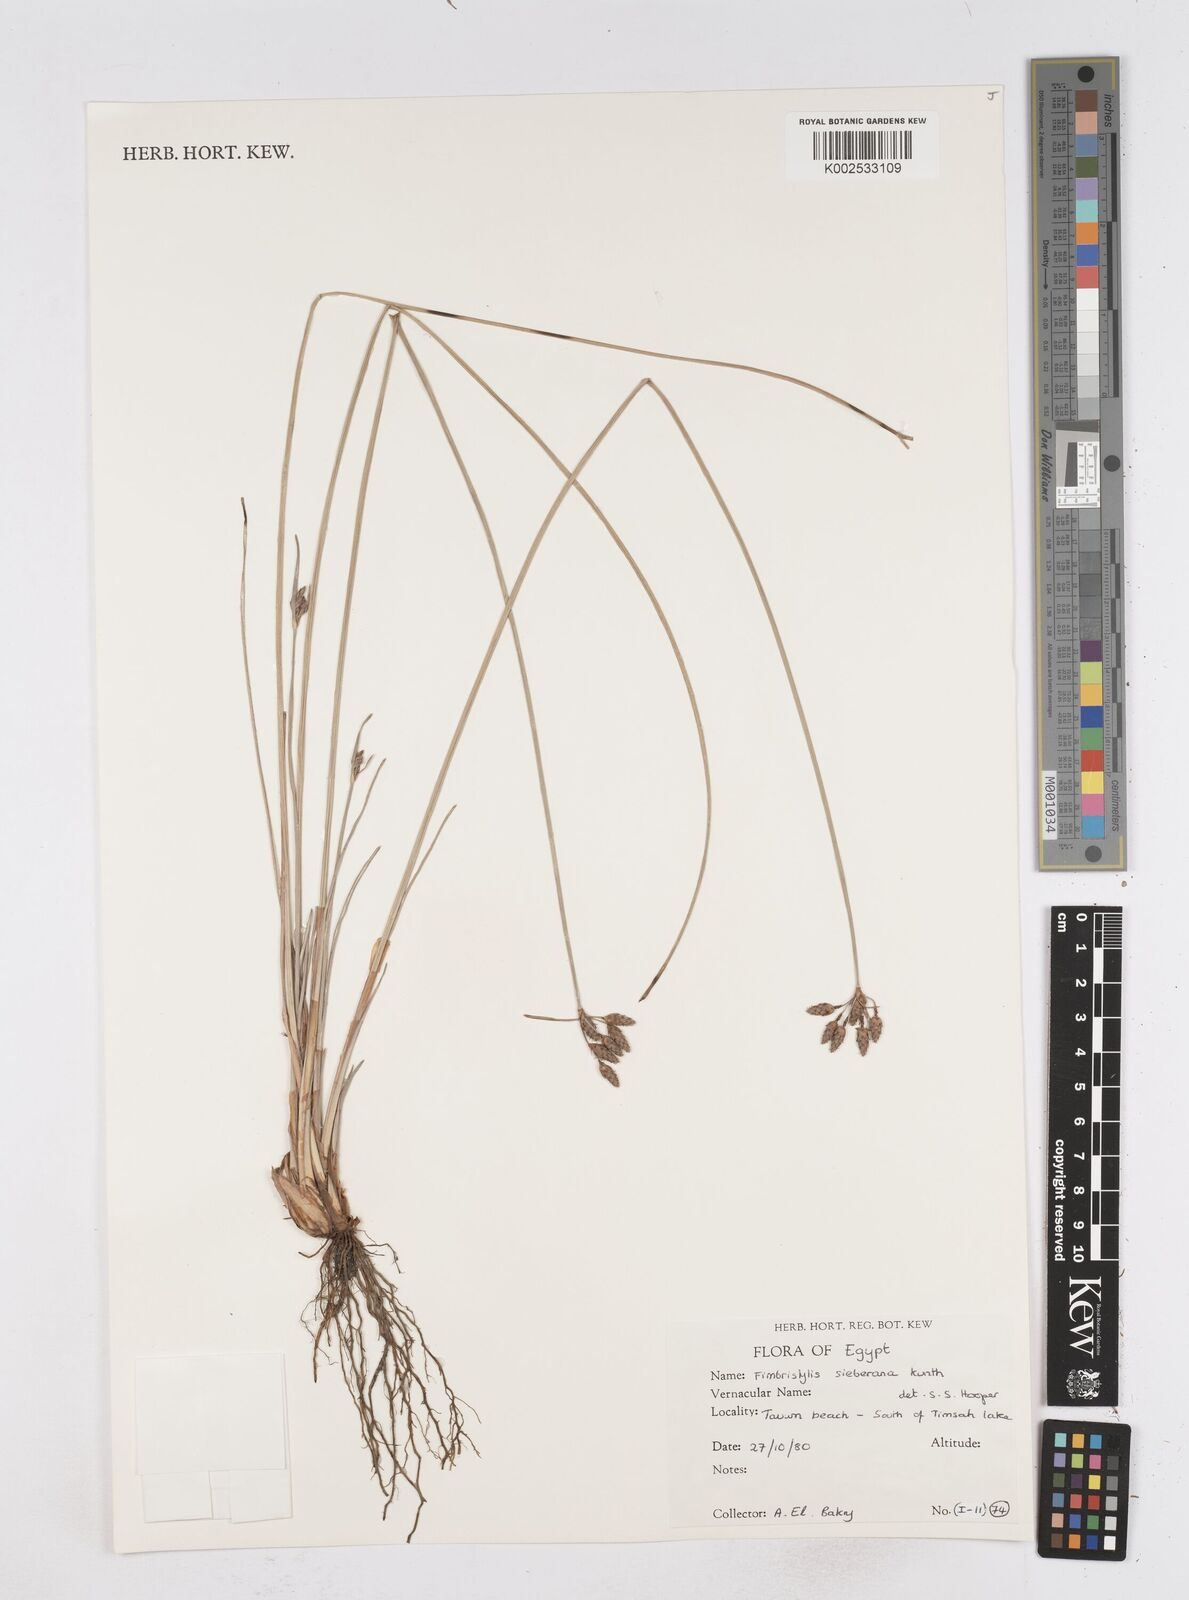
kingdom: Plantae
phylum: Tracheophyta
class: Liliopsida
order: Poales
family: Cyperaceae
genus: Fimbristylis
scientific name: Fimbristylis ferruginea
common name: West indian fimbry
